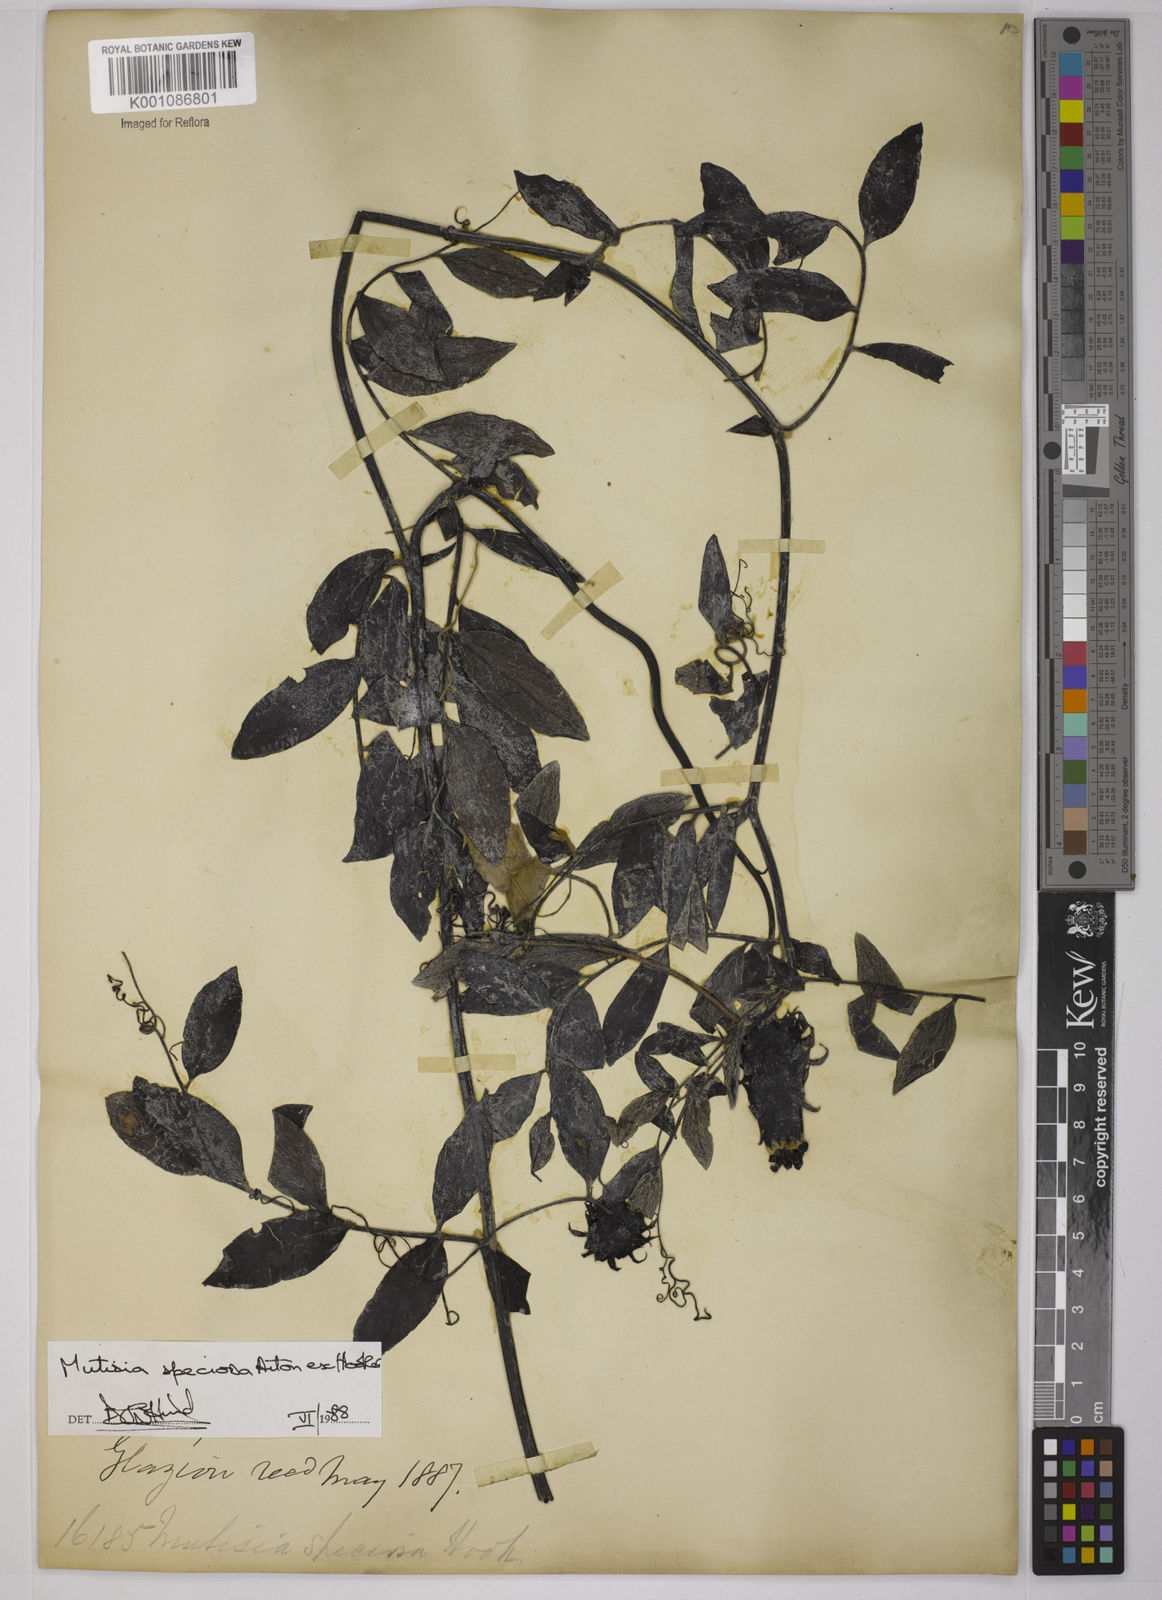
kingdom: Plantae
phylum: Tracheophyta
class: Magnoliopsida
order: Asterales
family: Asteraceae
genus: Mutisia
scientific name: Mutisia speciosa
